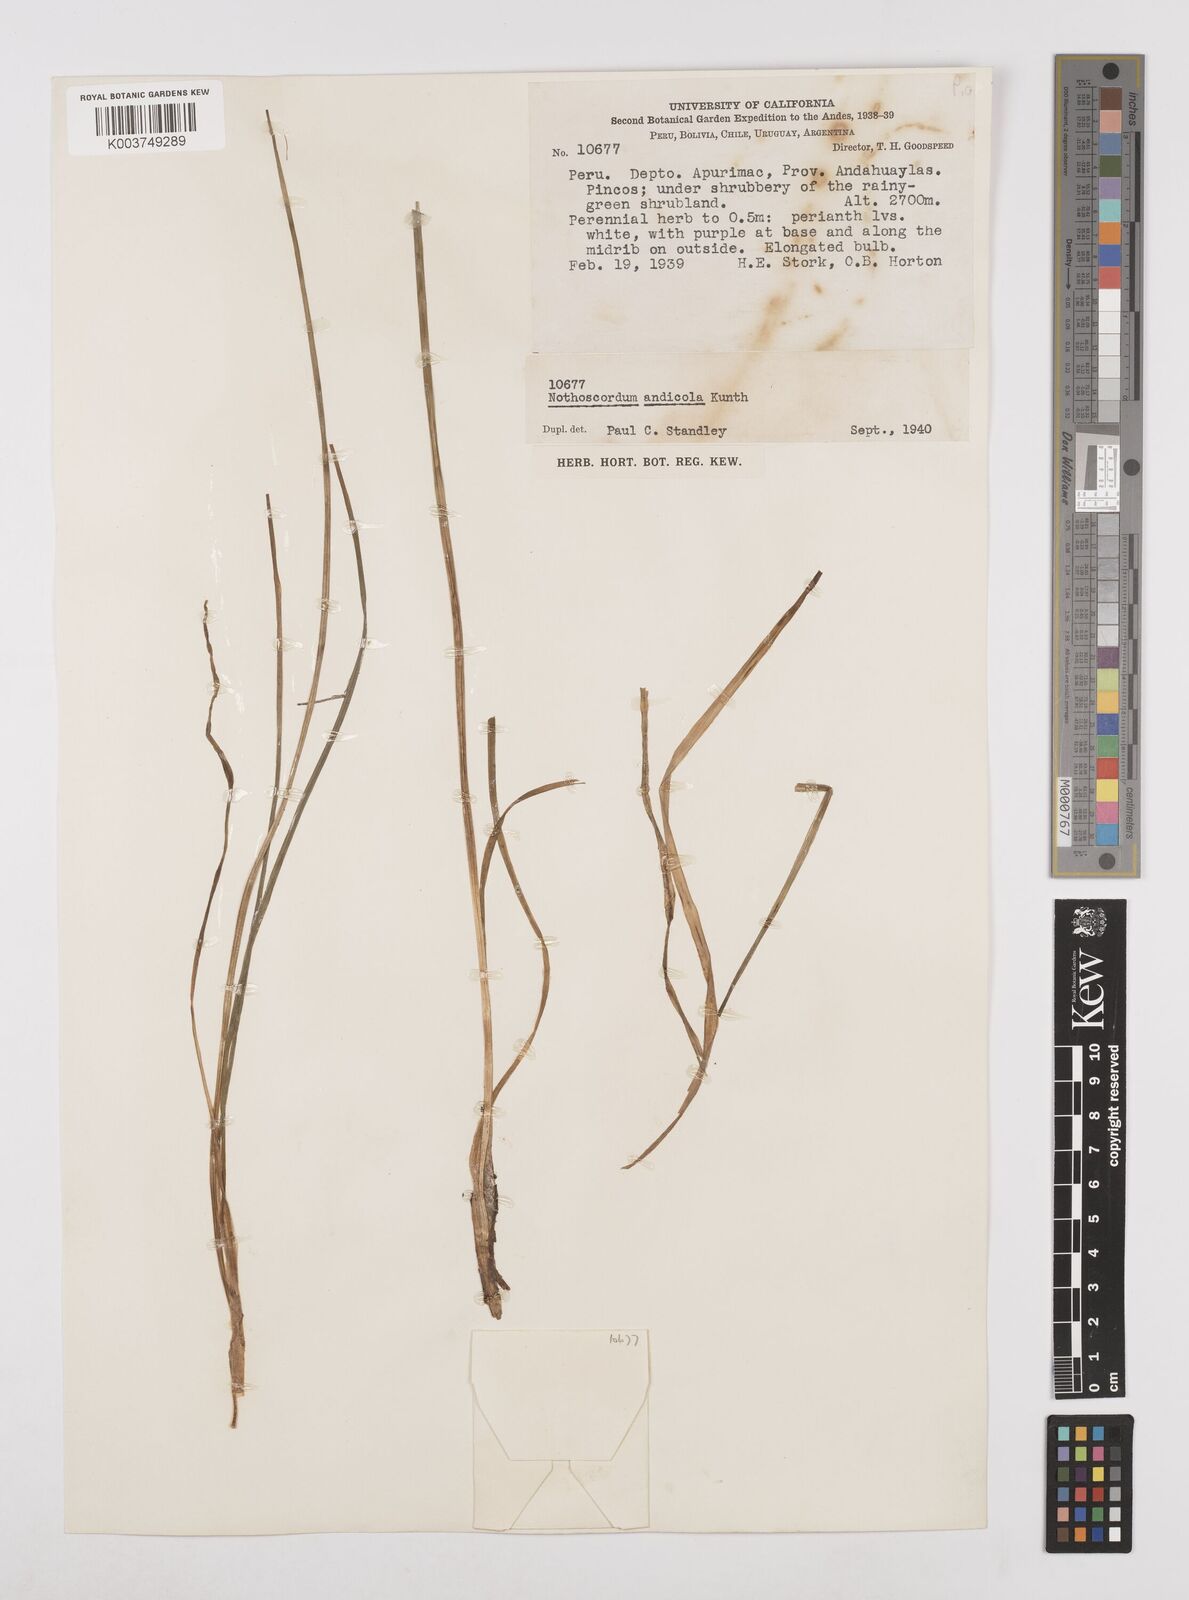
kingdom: Plantae
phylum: Tracheophyta
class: Liliopsida
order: Asparagales
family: Amaryllidaceae
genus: Nothoscordum
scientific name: Nothoscordum andicola
